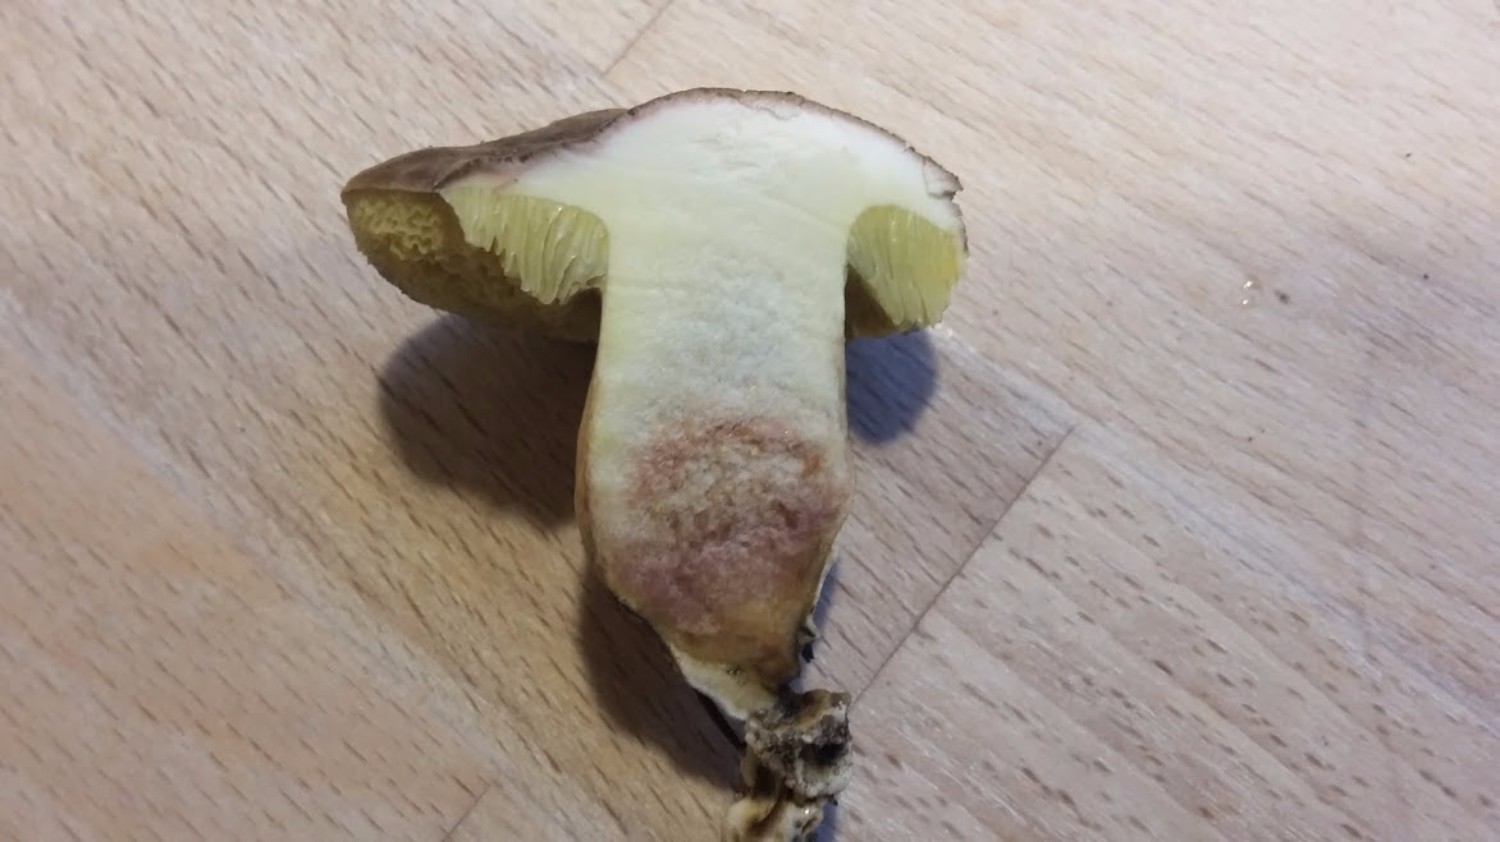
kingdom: Fungi
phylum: Basidiomycota
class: Agaricomycetes
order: Boletales
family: Boletaceae
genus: Xerocomellus
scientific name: Xerocomellus porosporus
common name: hvidsprukken rørhat
